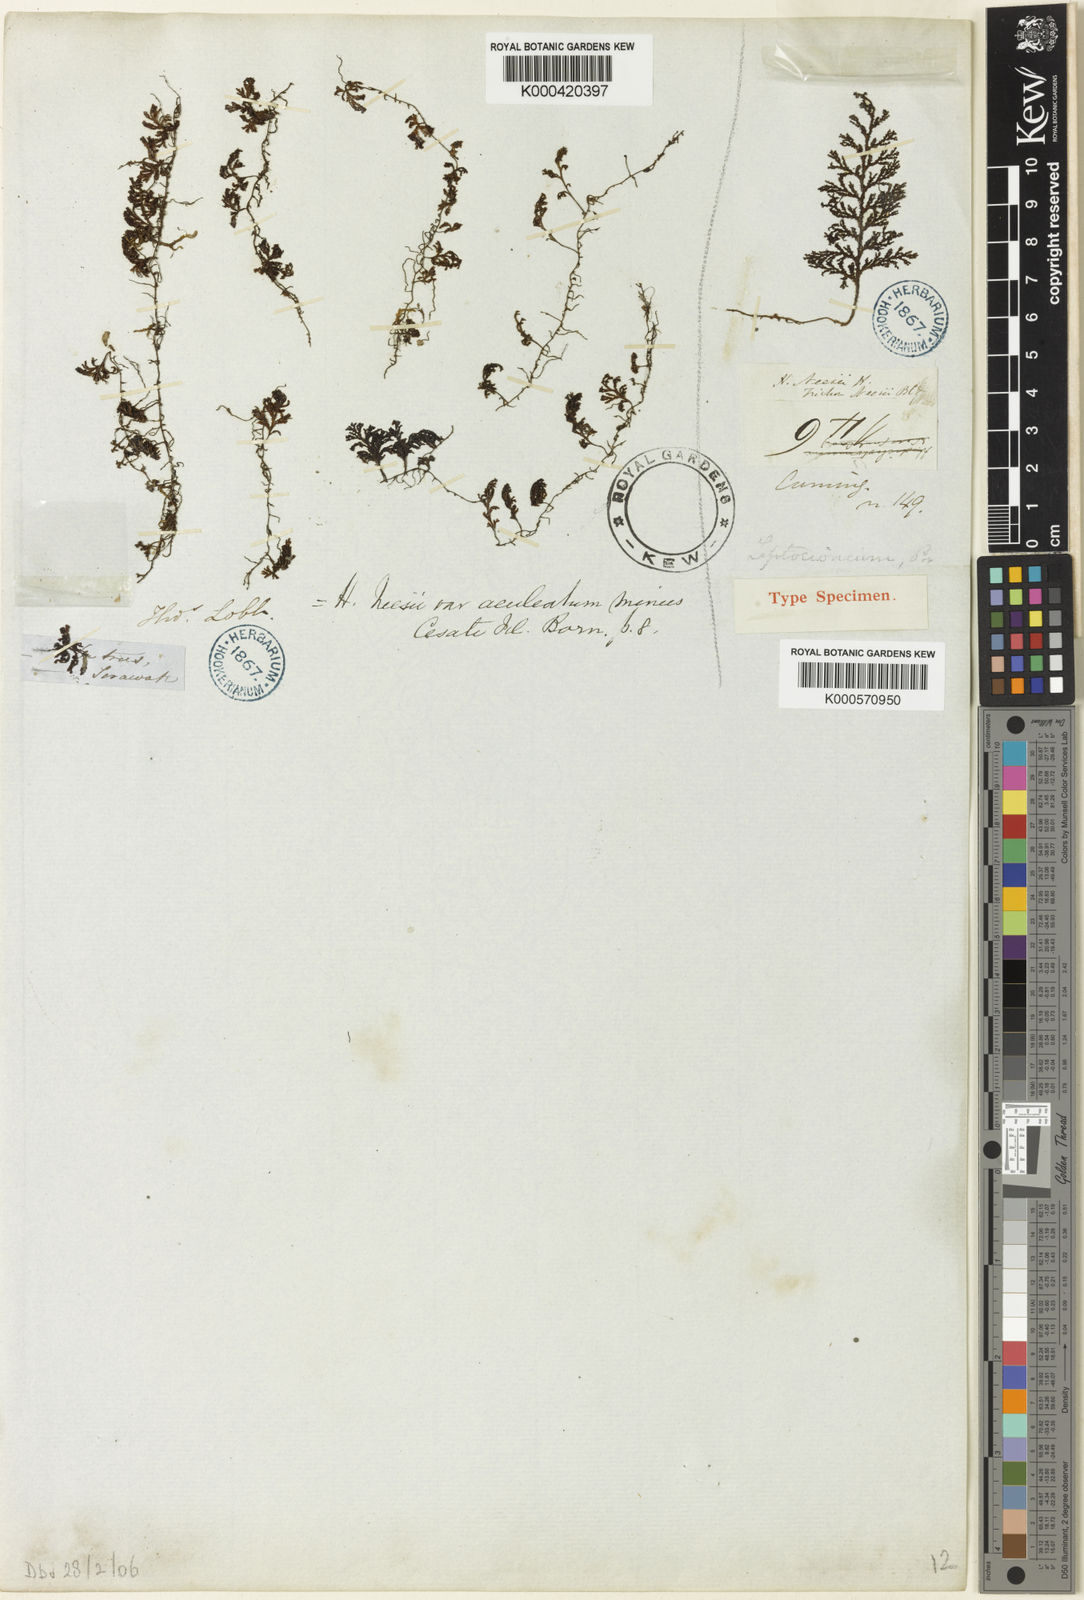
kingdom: Plantae
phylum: Tracheophyta
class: Polypodiopsida
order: Hymenophyllales
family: Hymenophyllaceae
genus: Hymenophyllum
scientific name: Hymenophyllum denticulatum
